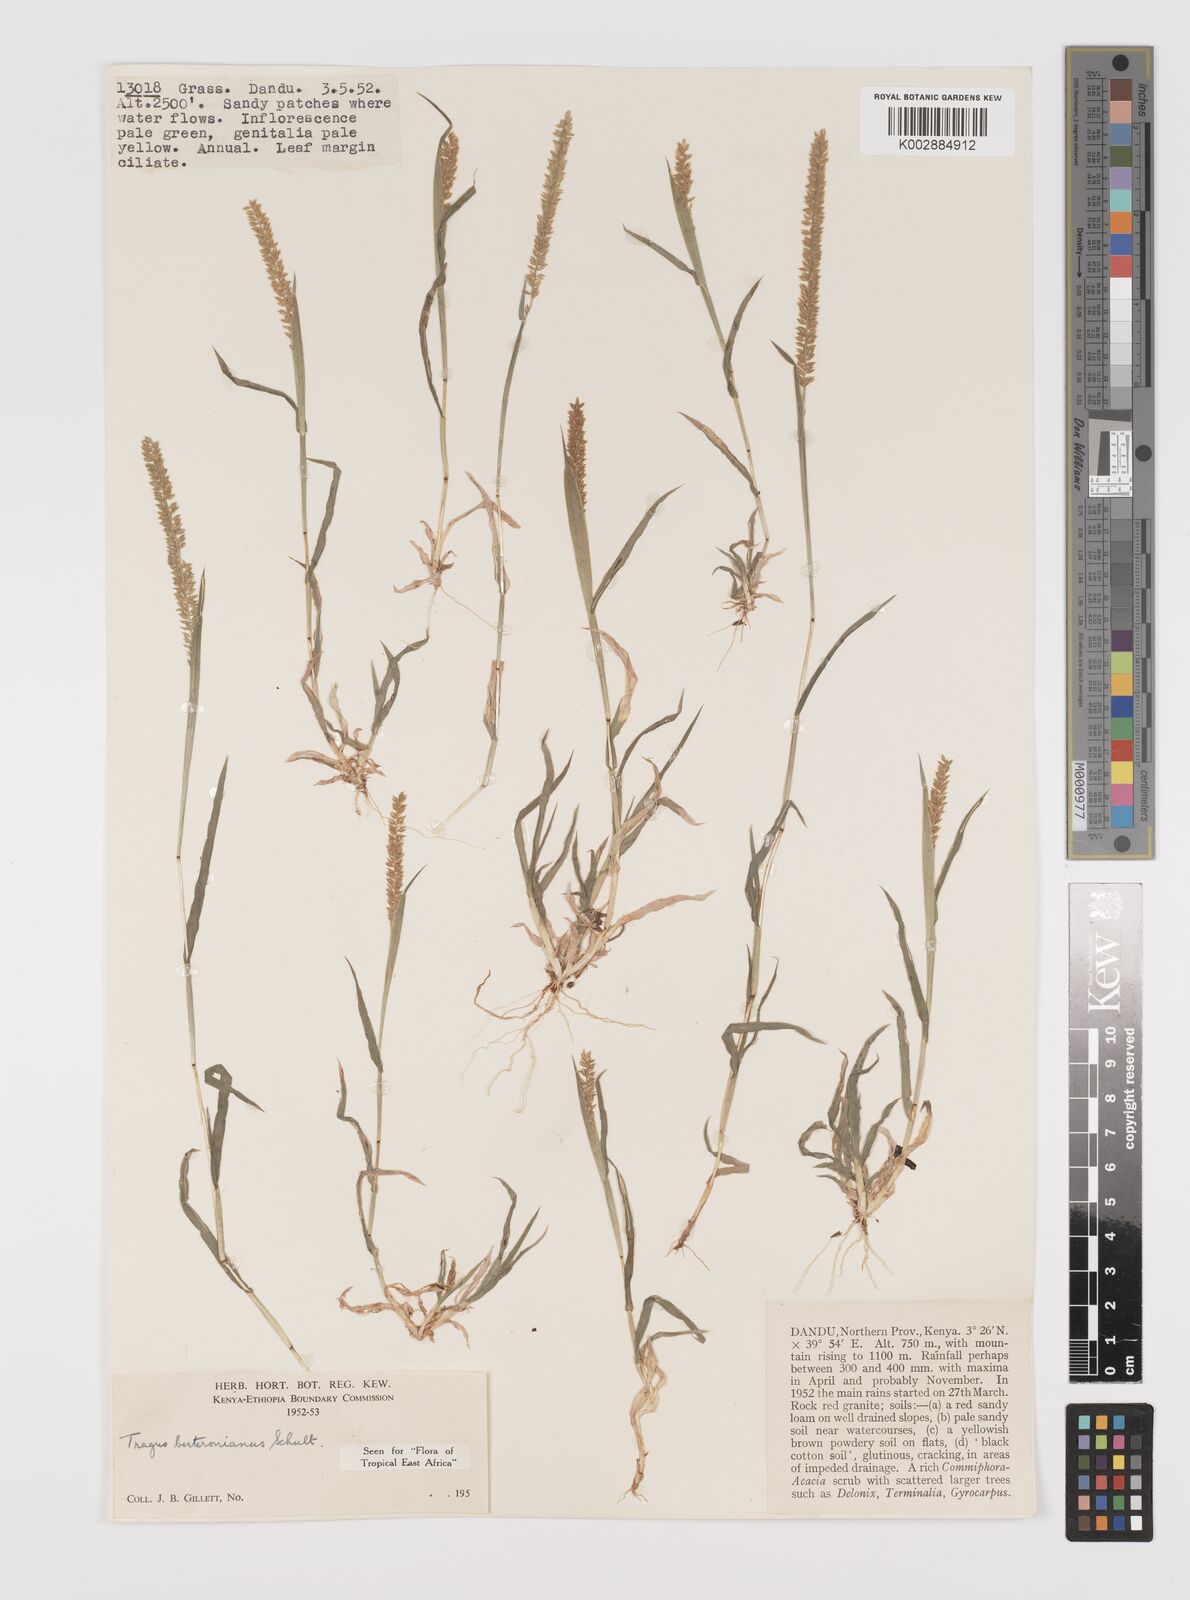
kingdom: Plantae
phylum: Tracheophyta
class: Liliopsida
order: Poales
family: Poaceae
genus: Tragus
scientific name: Tragus berteronianus
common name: African bur-grass
